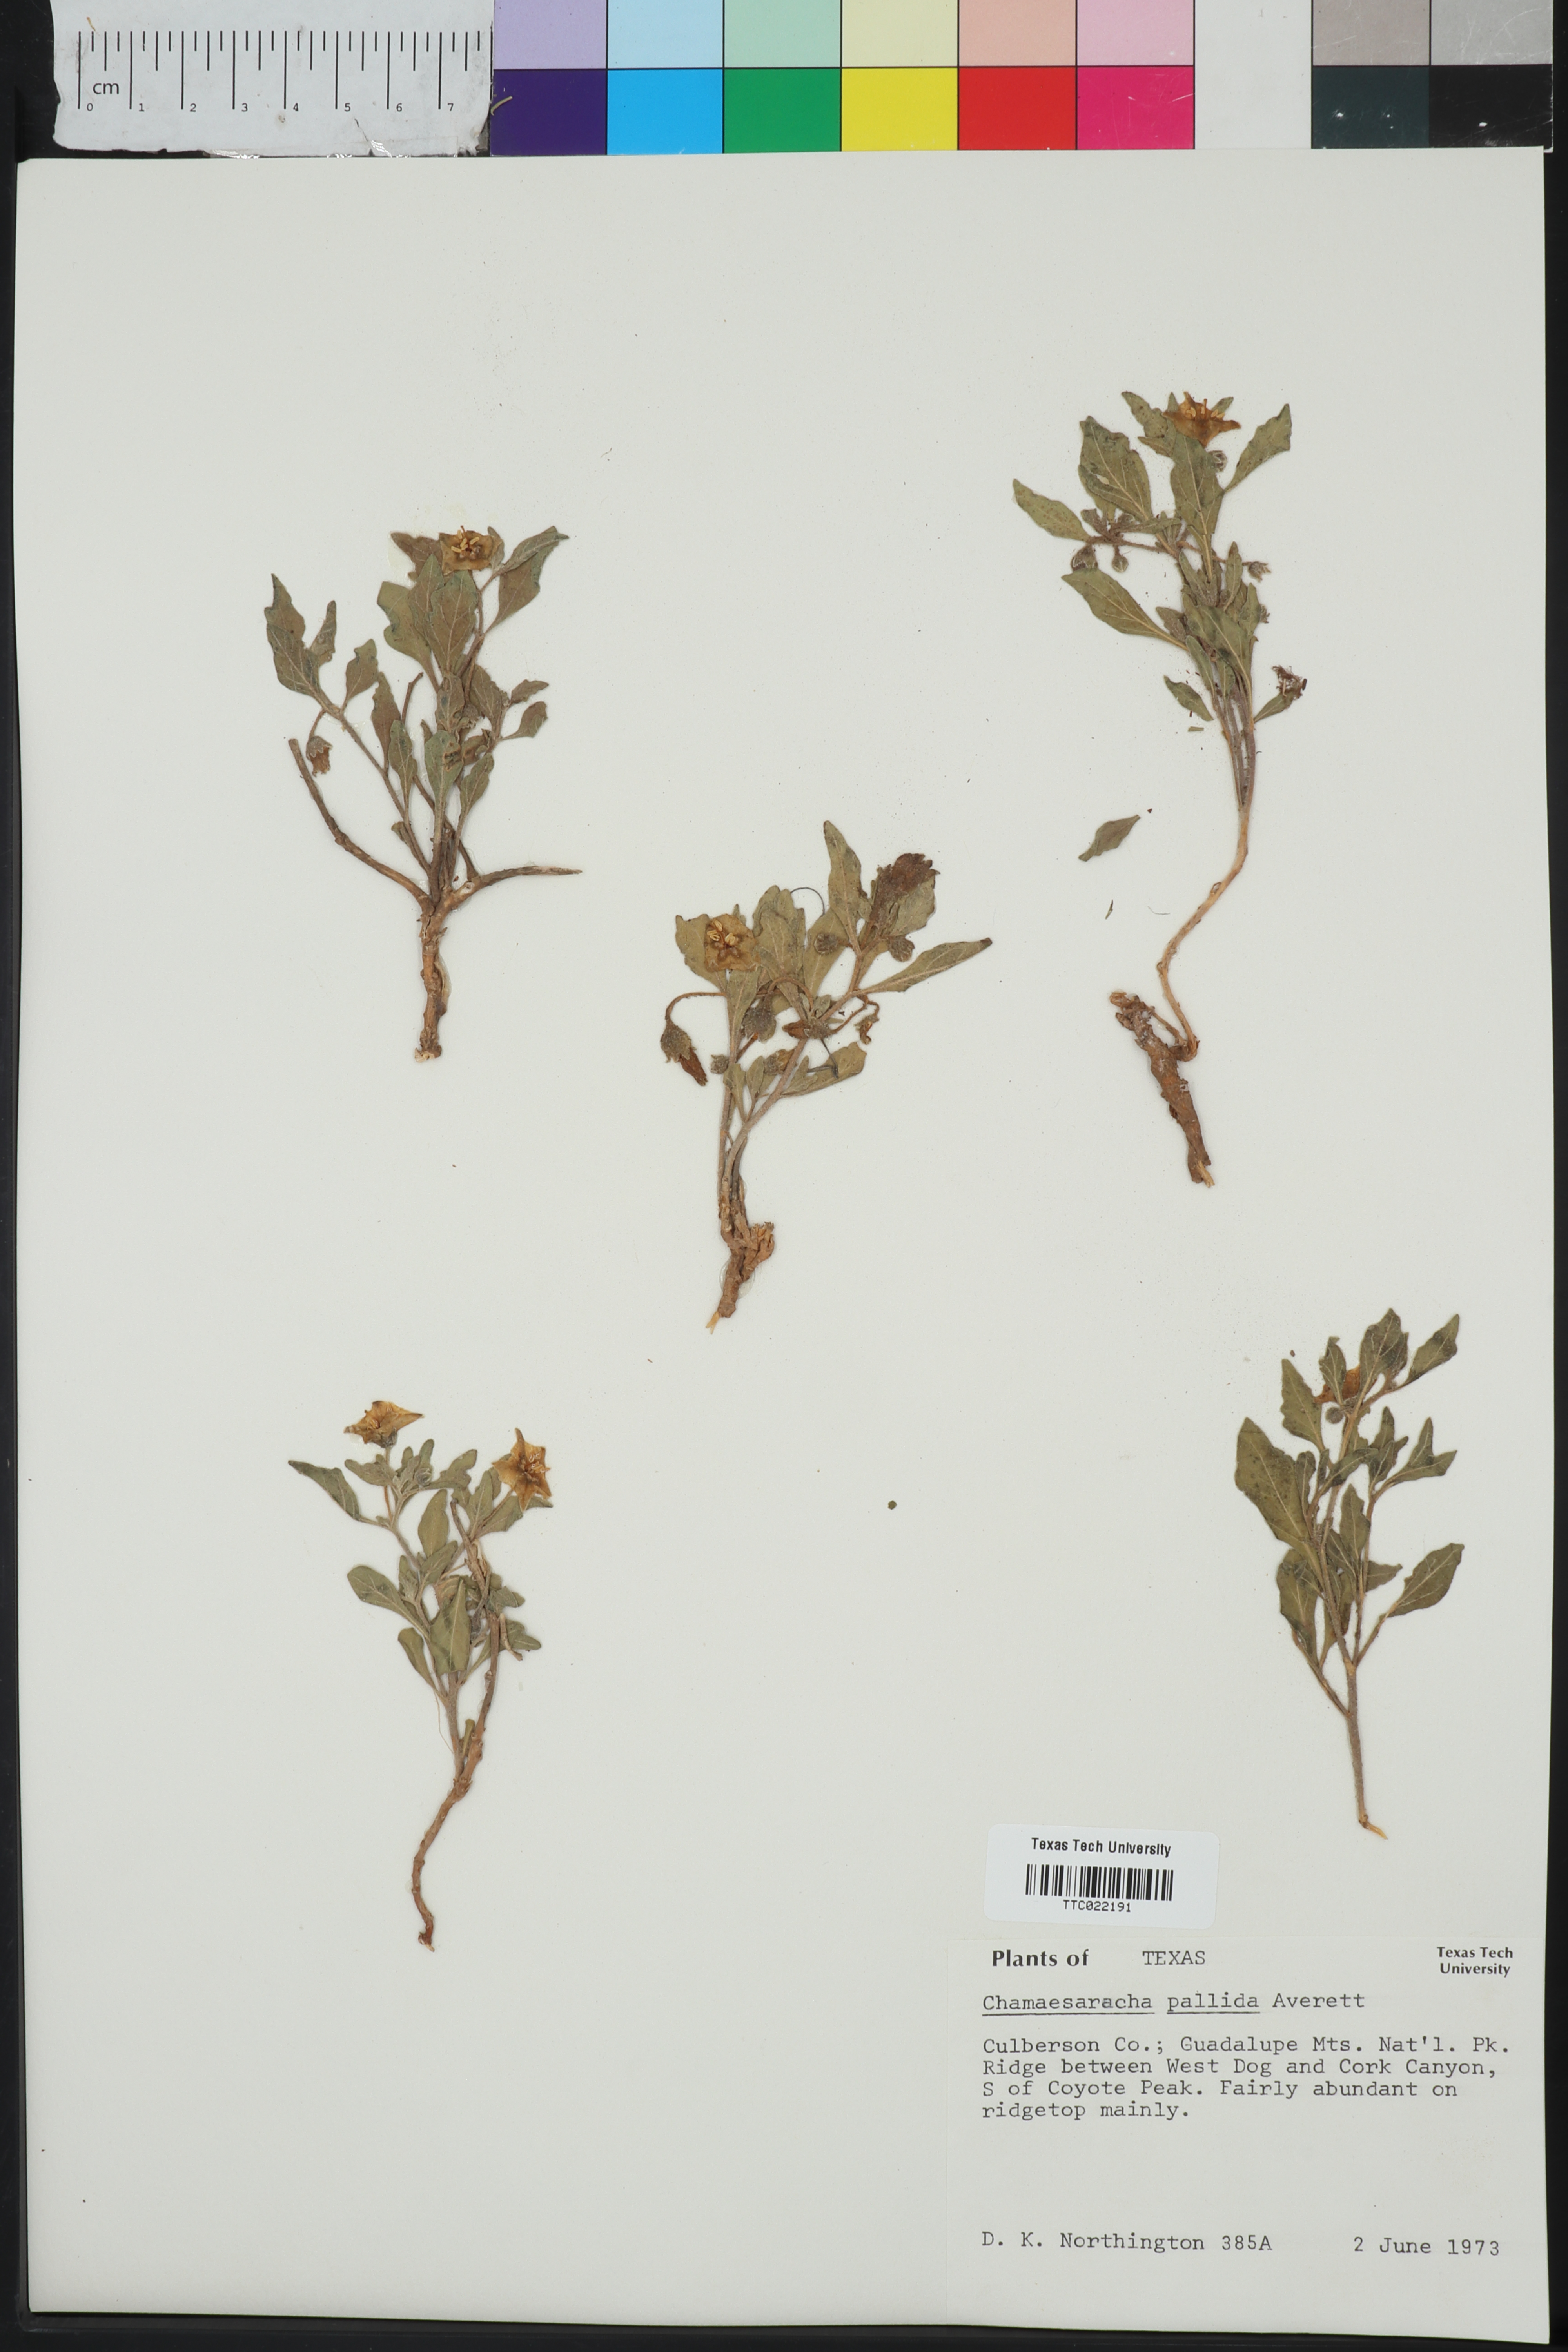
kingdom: Plantae
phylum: Tracheophyta
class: Magnoliopsida
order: Solanales
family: Solanaceae
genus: Chamaesaracha
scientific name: Chamaesaracha pallida
